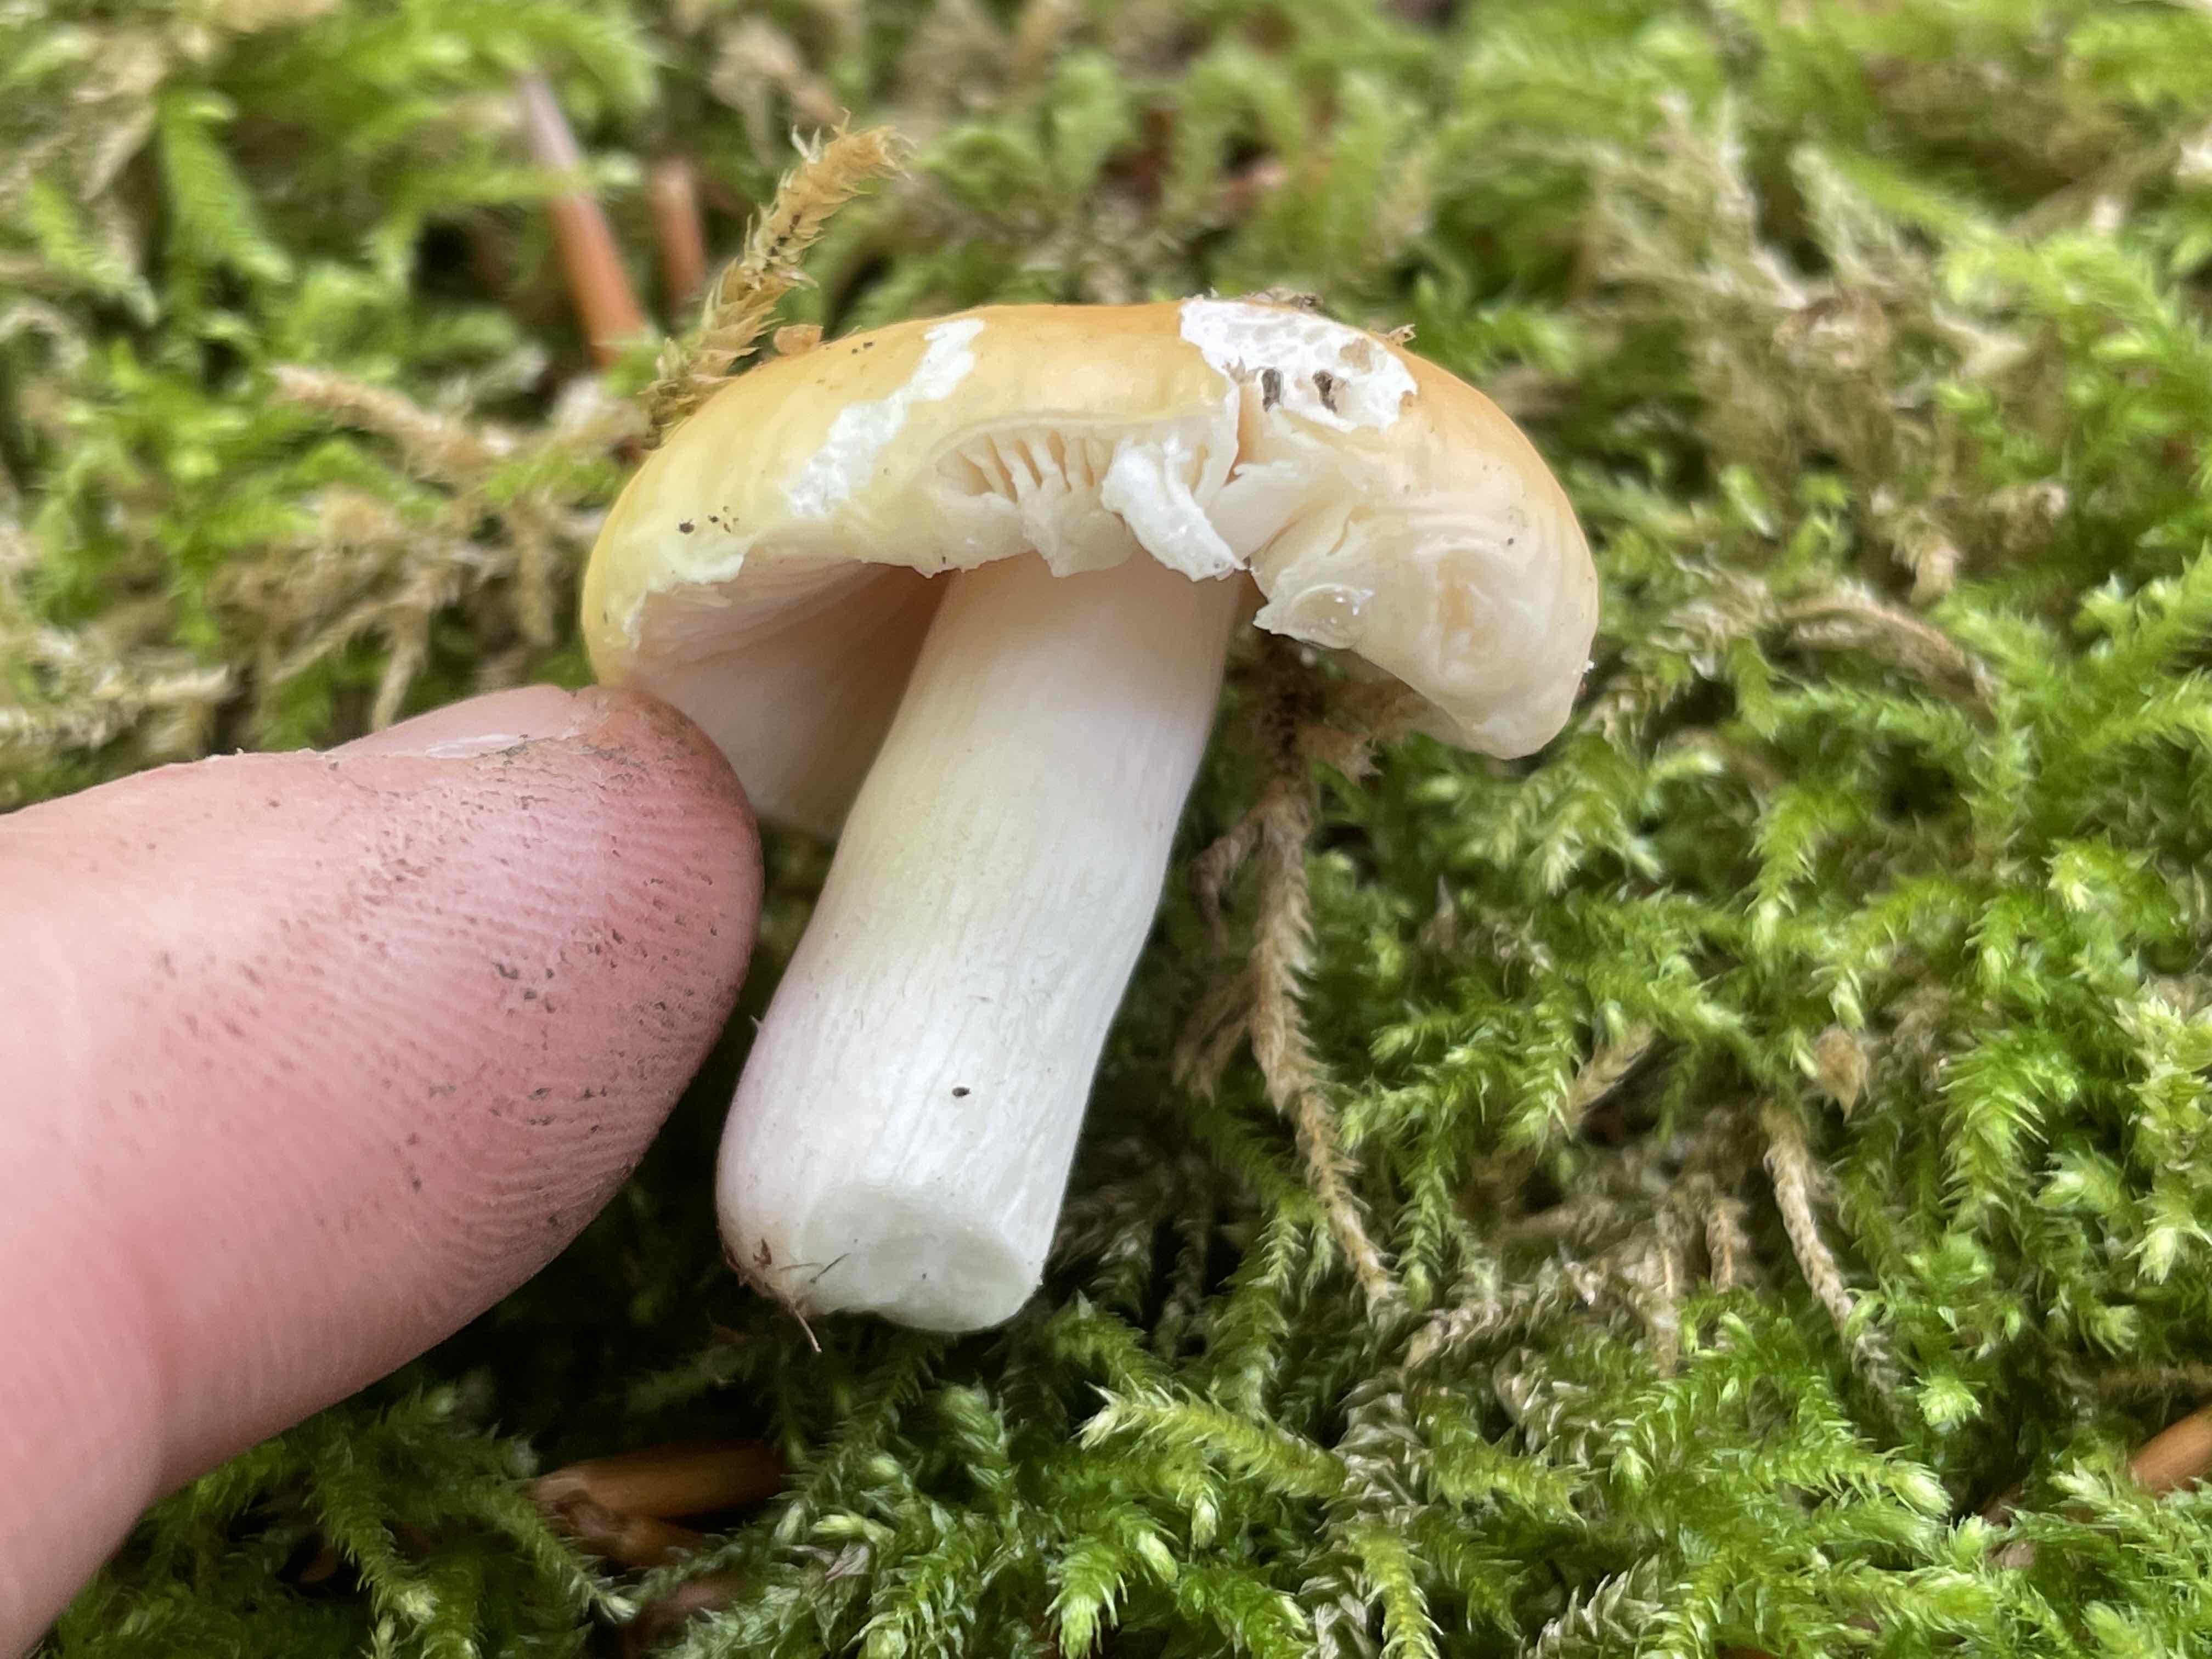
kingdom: Fungi
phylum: Basidiomycota
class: Agaricomycetes
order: Russulales
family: Russulaceae
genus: Russula
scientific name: Russula risigallina
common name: abrikos-skørhat
